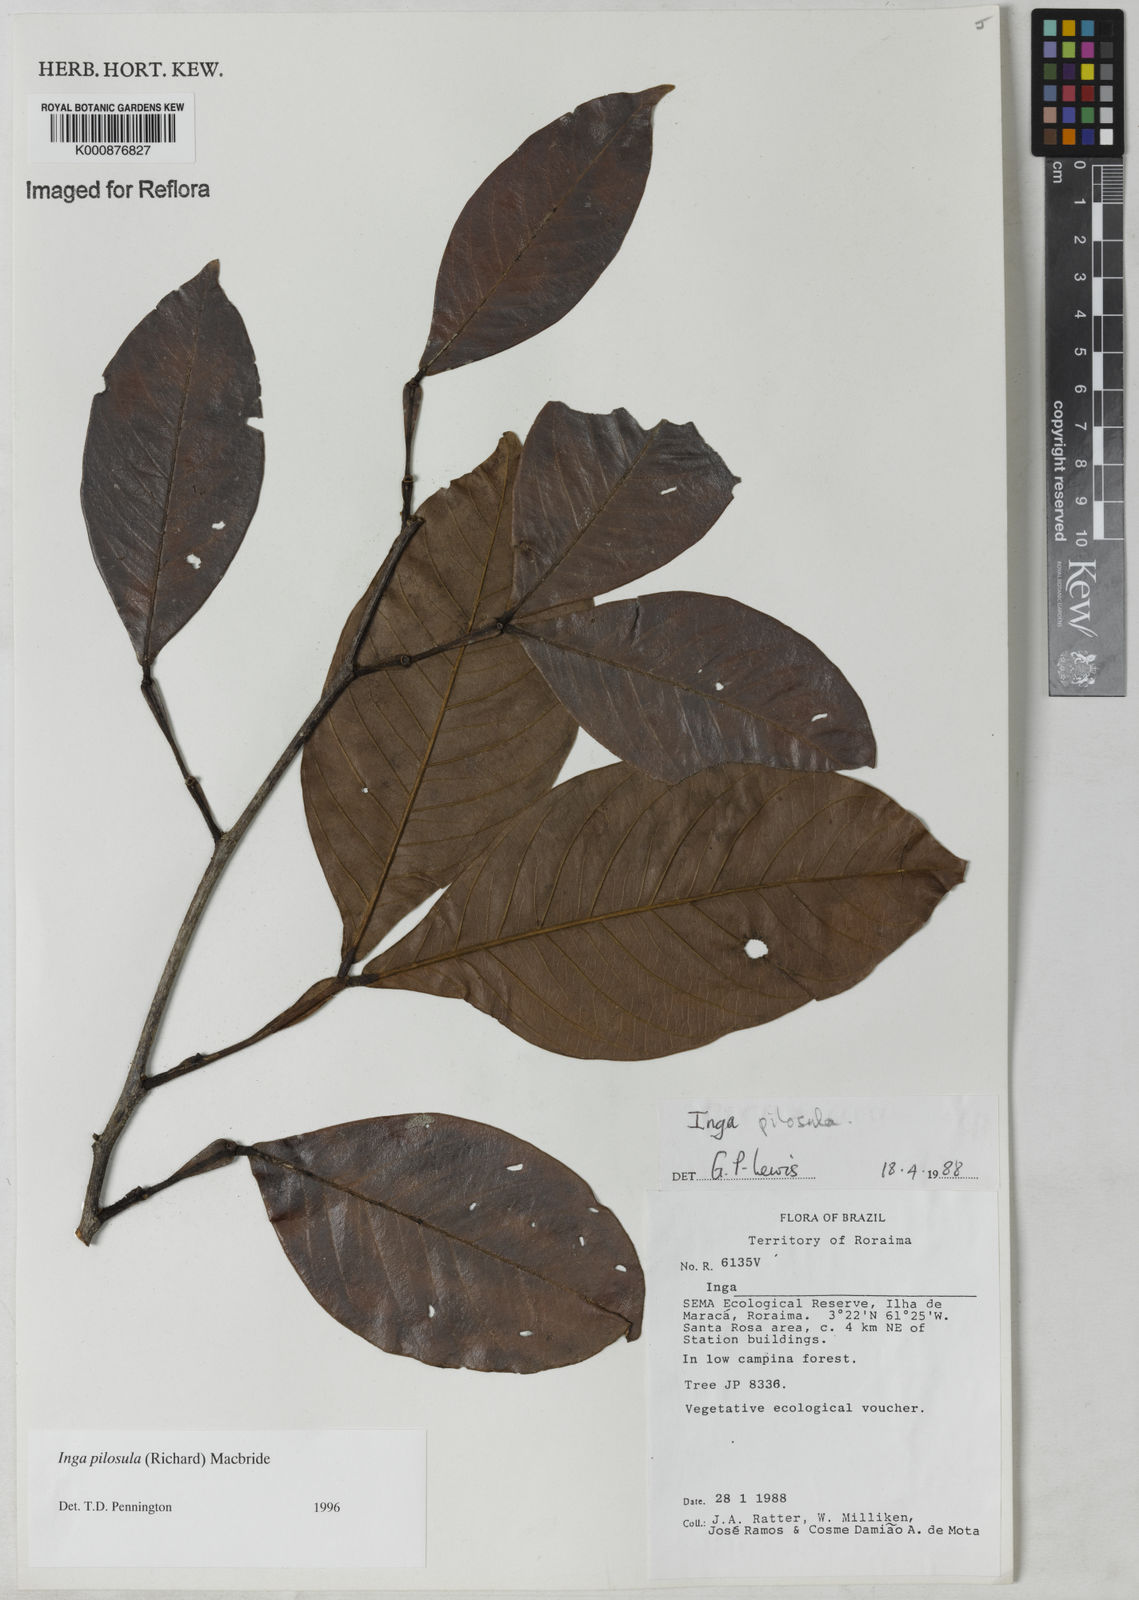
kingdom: Plantae
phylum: Tracheophyta
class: Magnoliopsida
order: Fabales
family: Fabaceae
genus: Inga
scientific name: Inga pilosula
